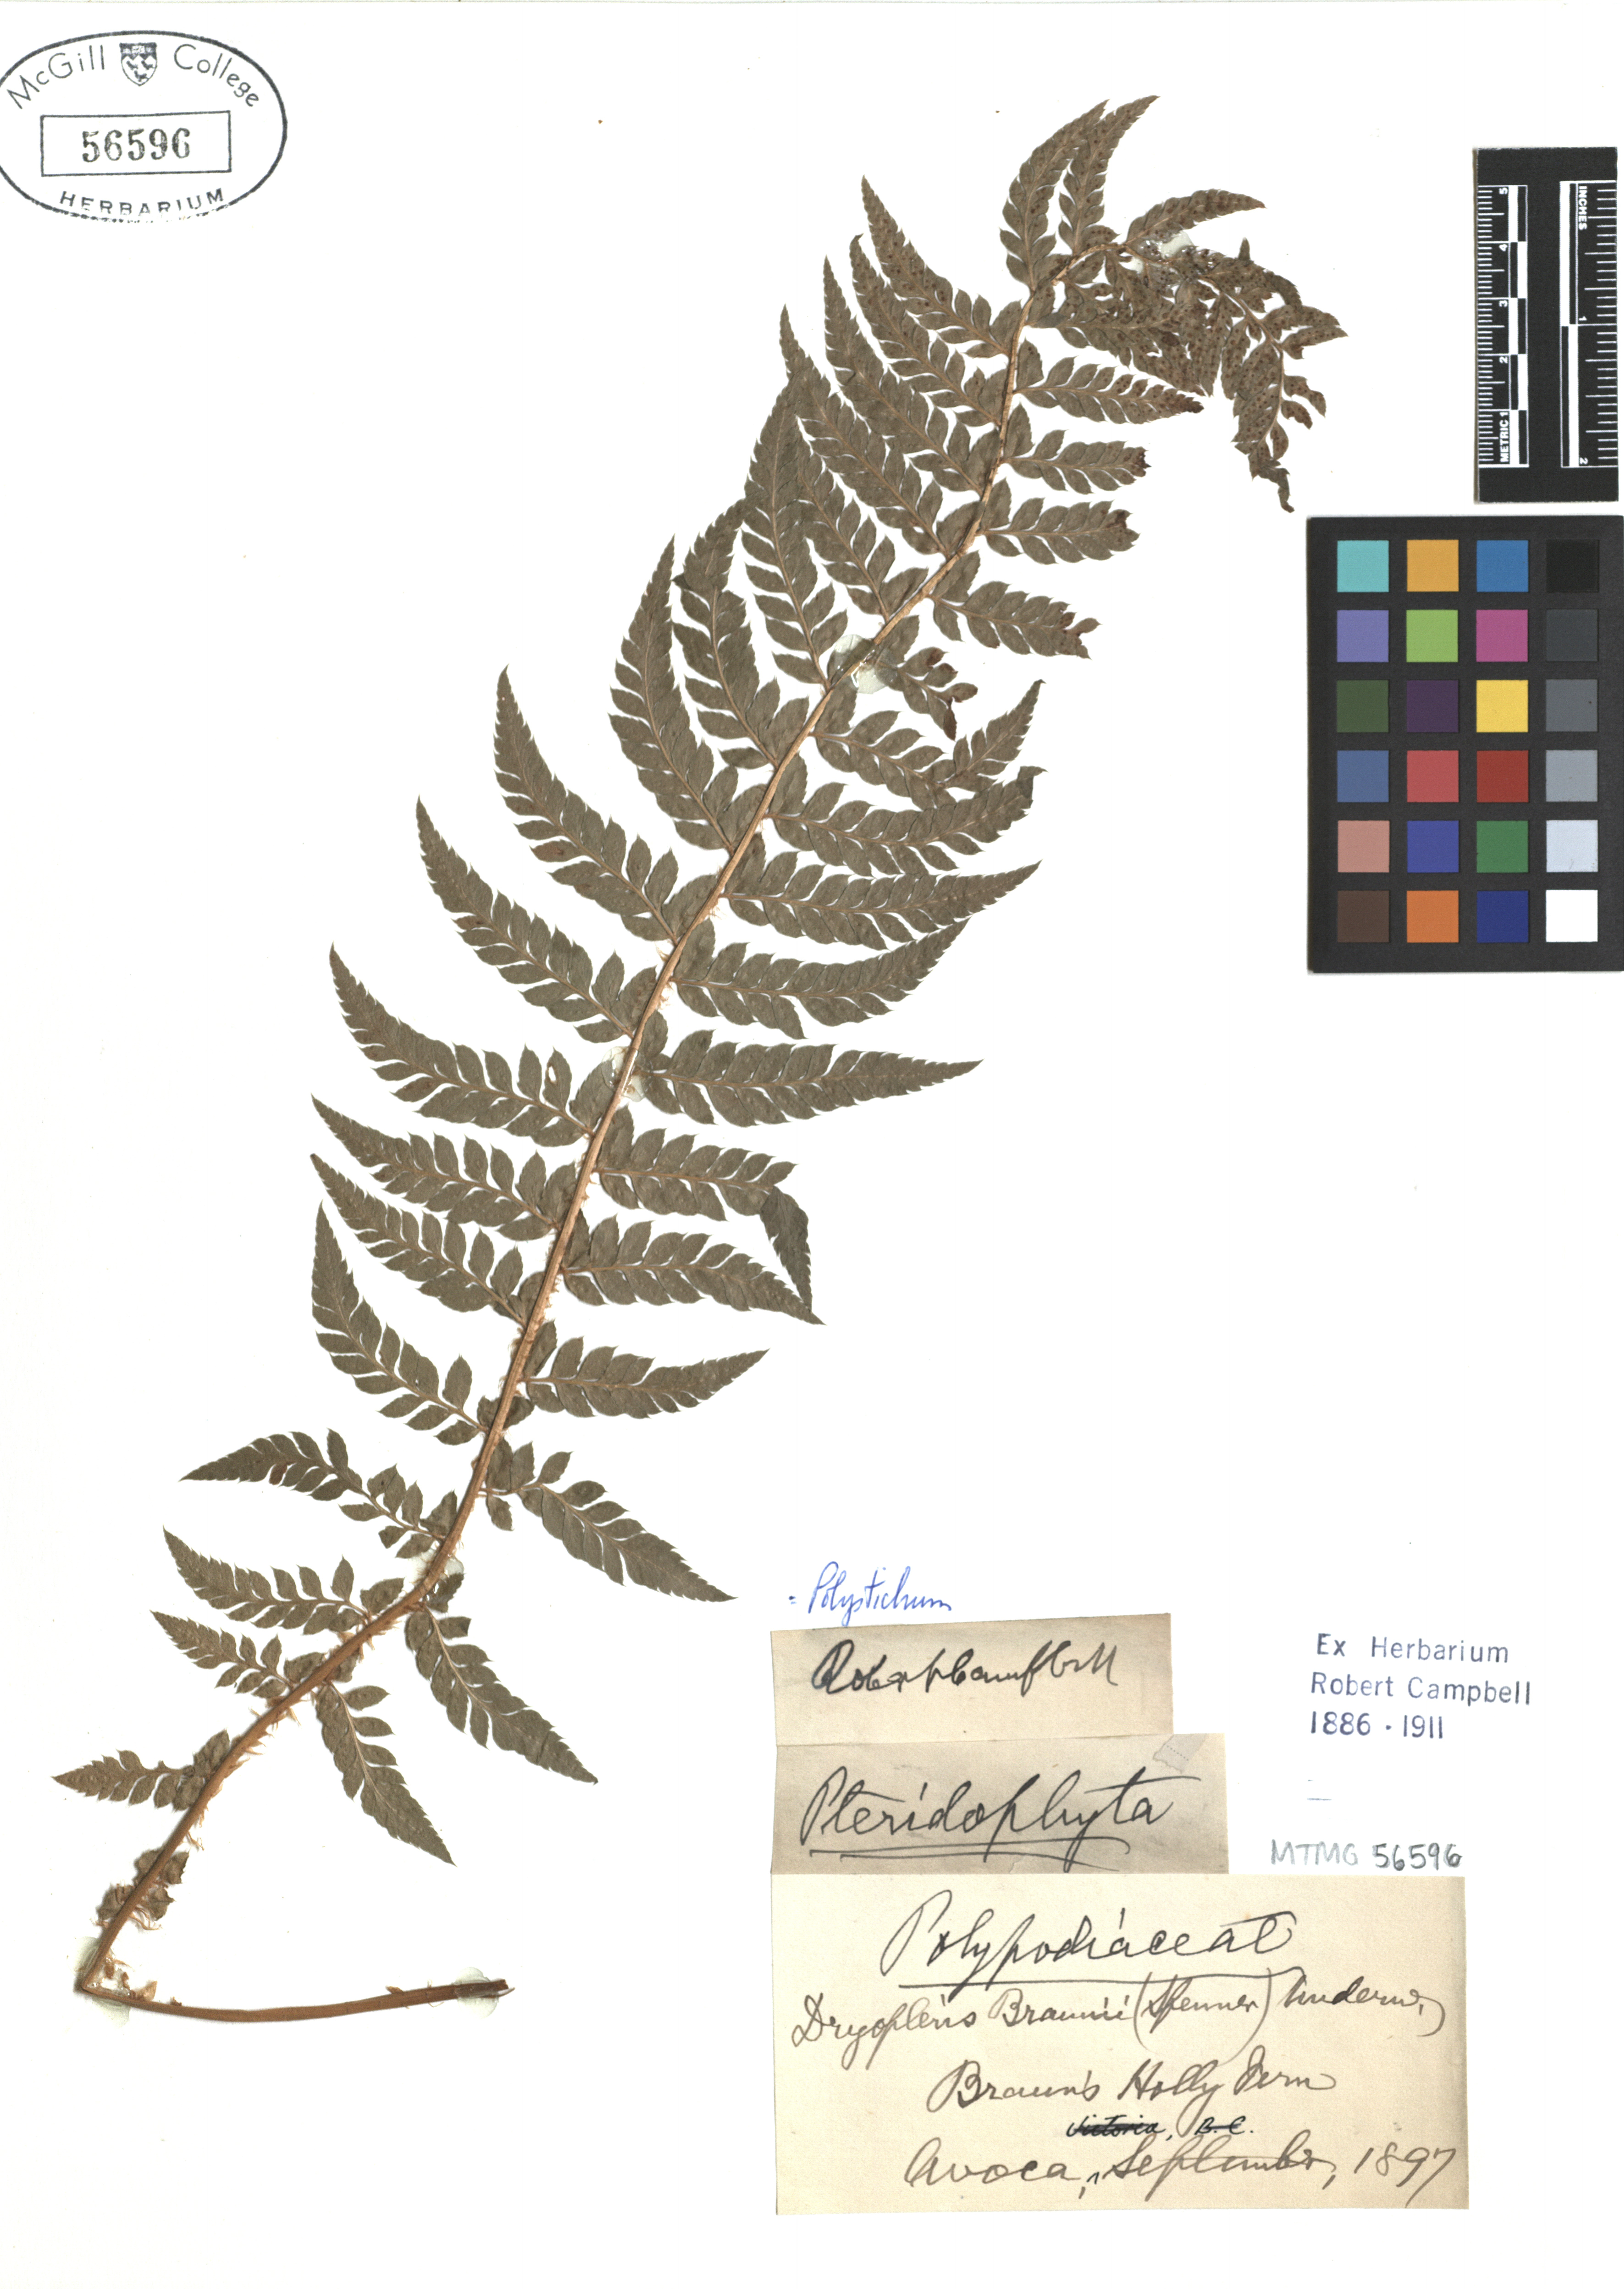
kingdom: Plantae
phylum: Tracheophyta
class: Polypodiopsida
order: Polypodiales
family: Thelypteridaceae
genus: Amauropelta
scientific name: Amauropelta brausei
